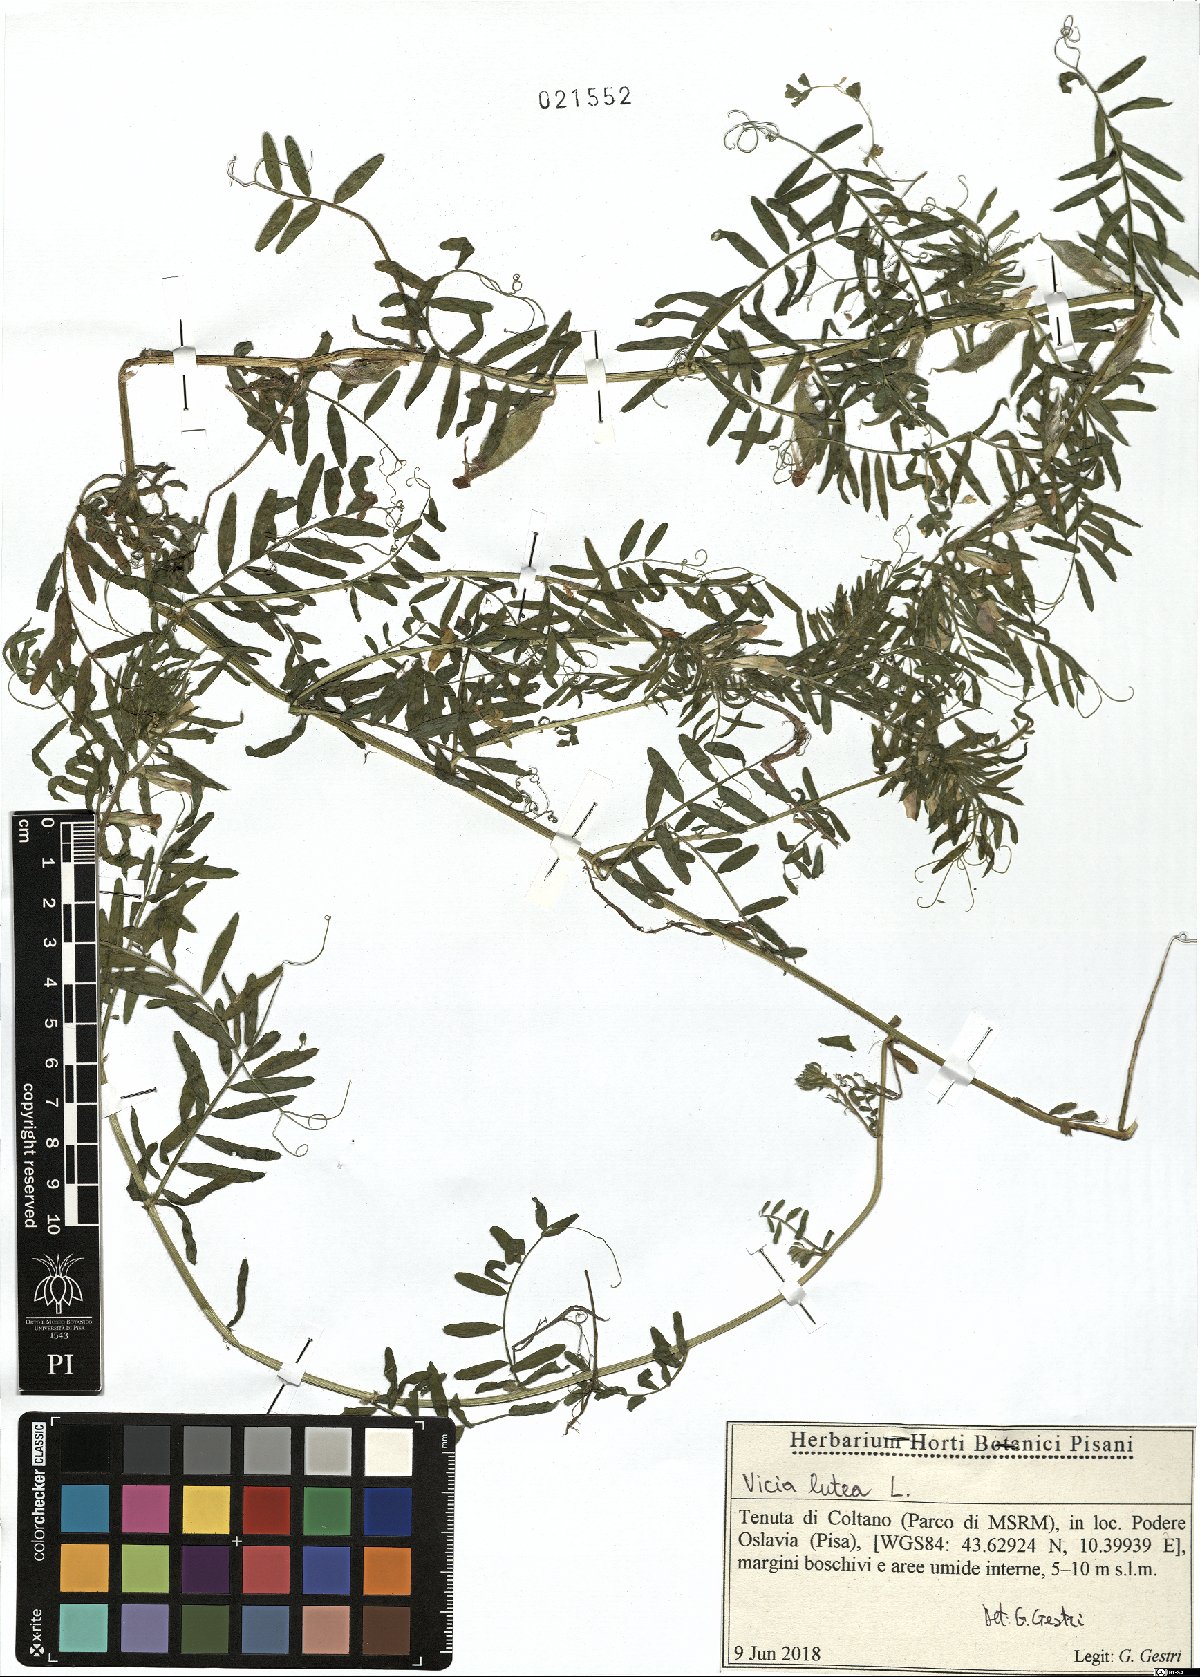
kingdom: Plantae
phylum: Tracheophyta
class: Magnoliopsida
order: Fabales
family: Fabaceae
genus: Vicia
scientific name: Vicia lutea
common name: Smooth yellow vetch
